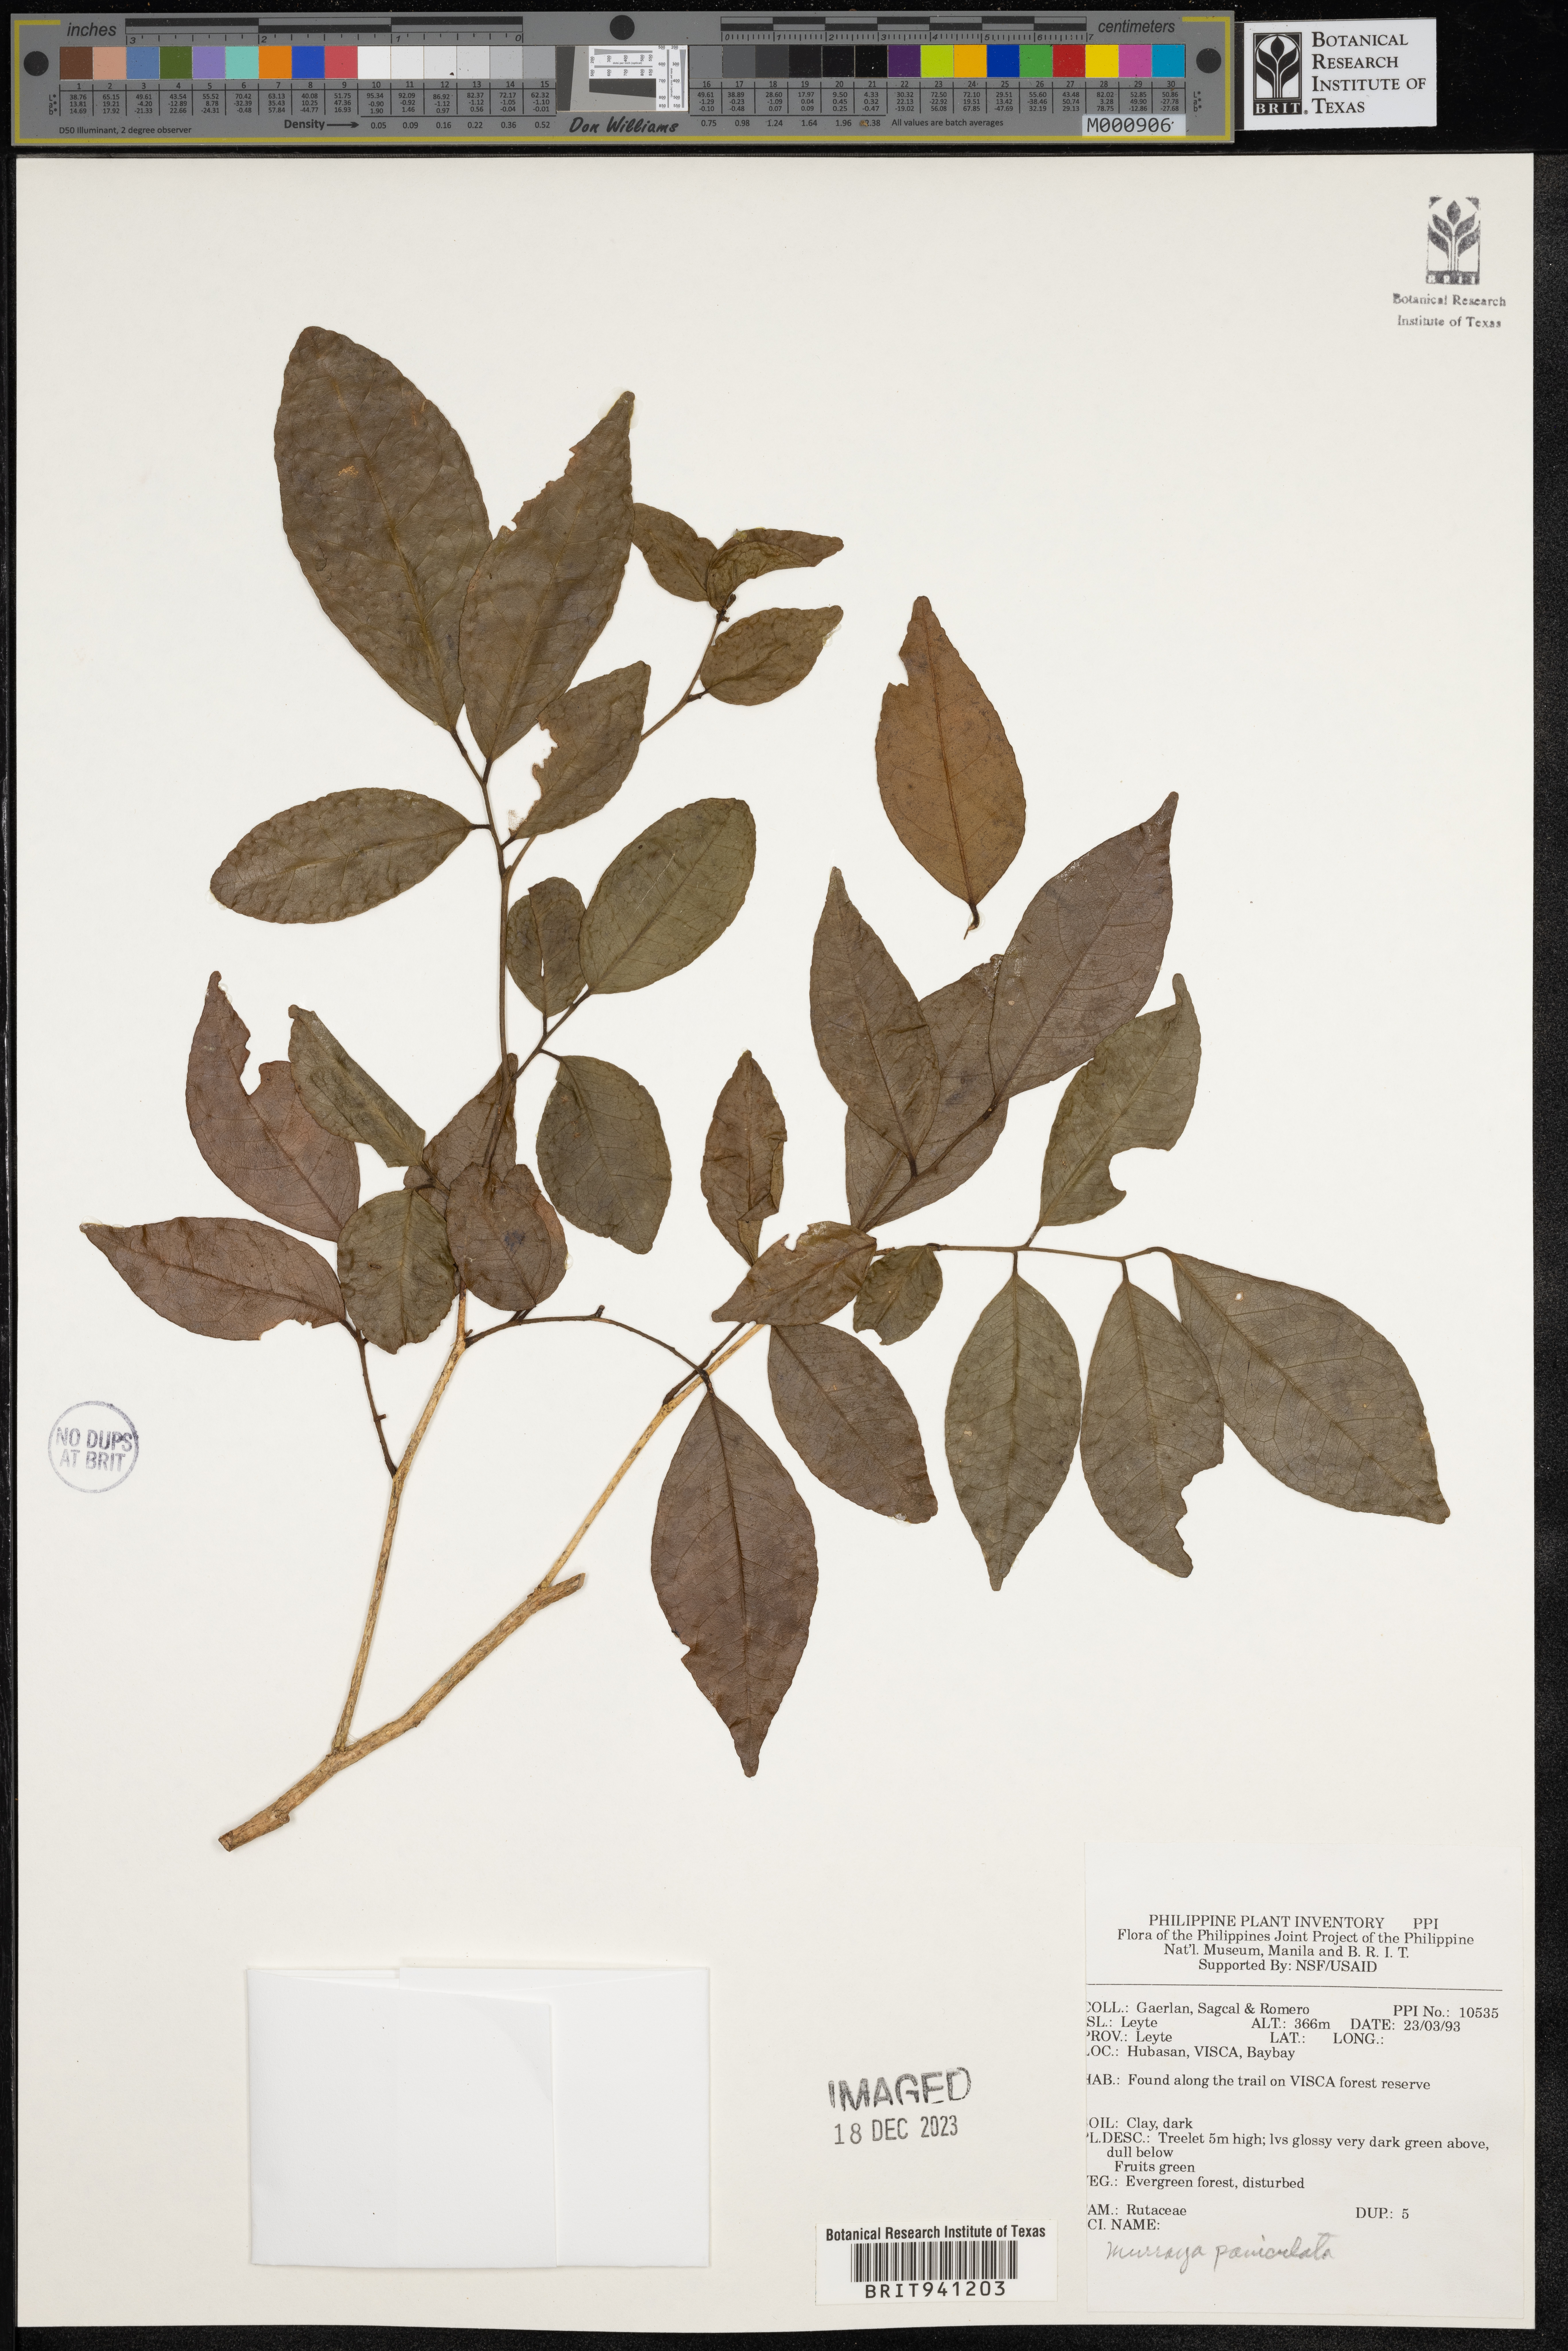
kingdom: Plantae
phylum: Tracheophyta
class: Magnoliopsida
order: Sapindales
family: Rutaceae
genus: Murraya
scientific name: Murraya
